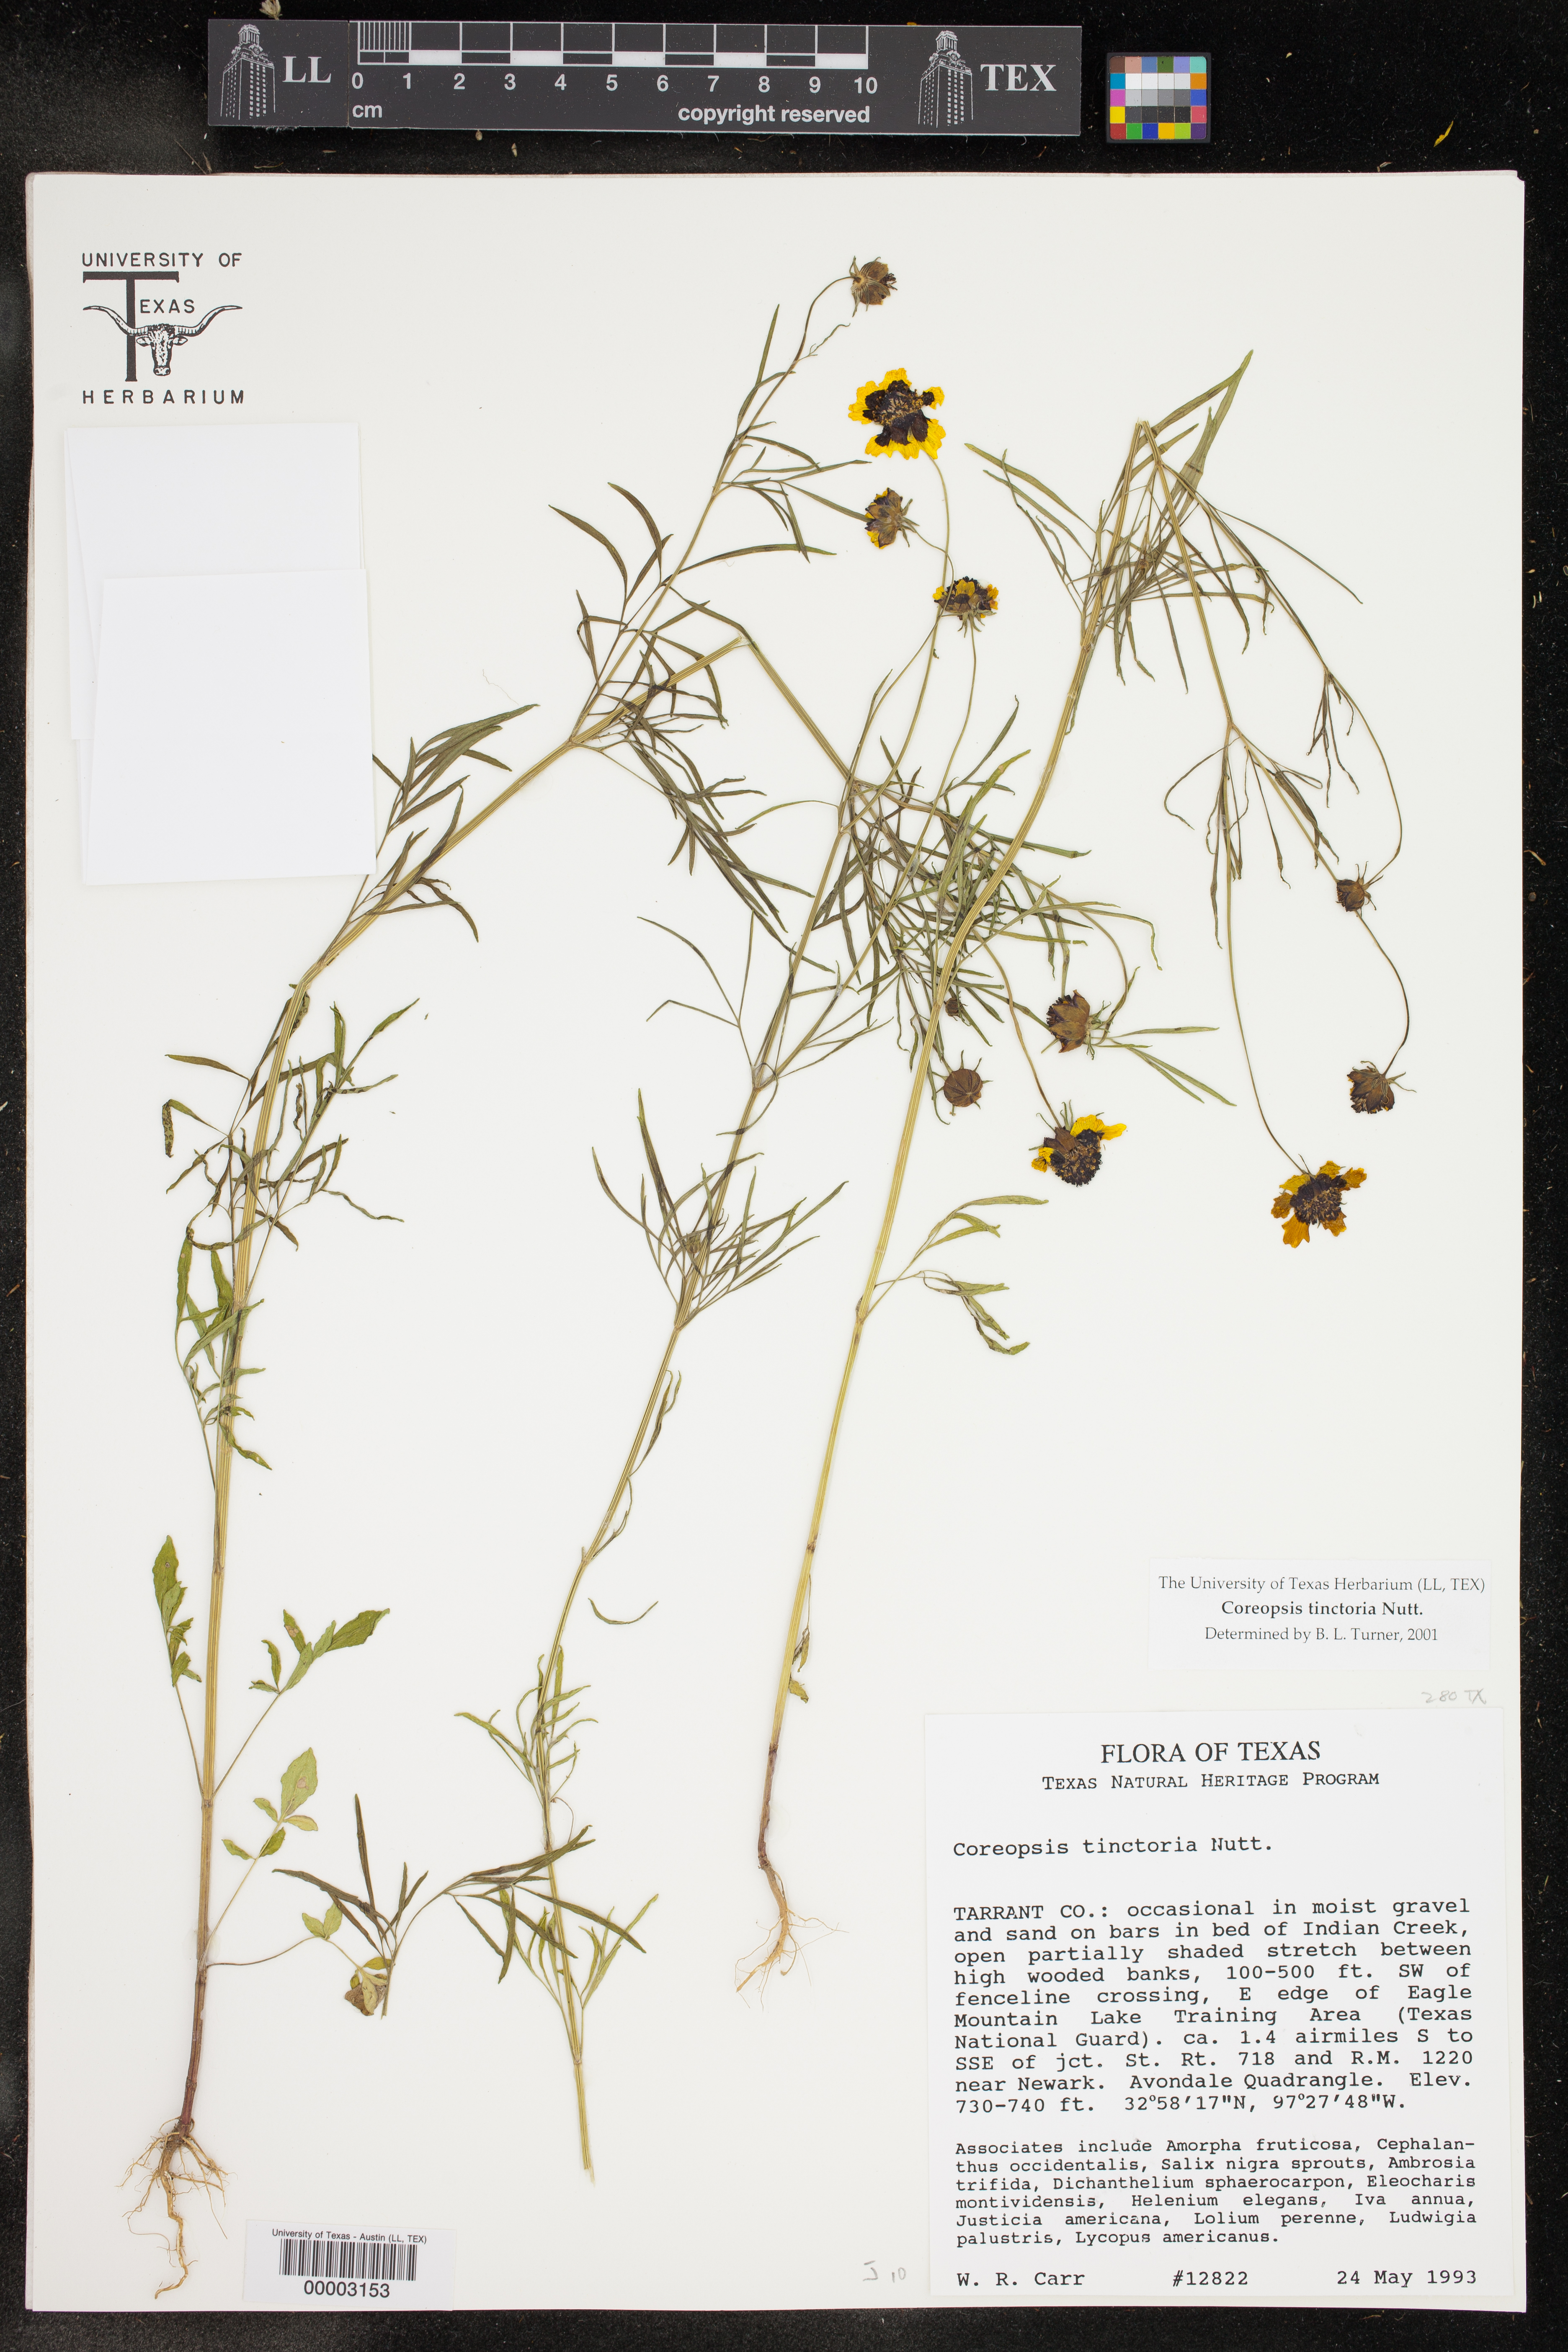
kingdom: Plantae
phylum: Tracheophyta
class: Magnoliopsida
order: Asterales
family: Asteraceae
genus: Coreopsis
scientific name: Coreopsis tinctoria
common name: Garden tickseed
